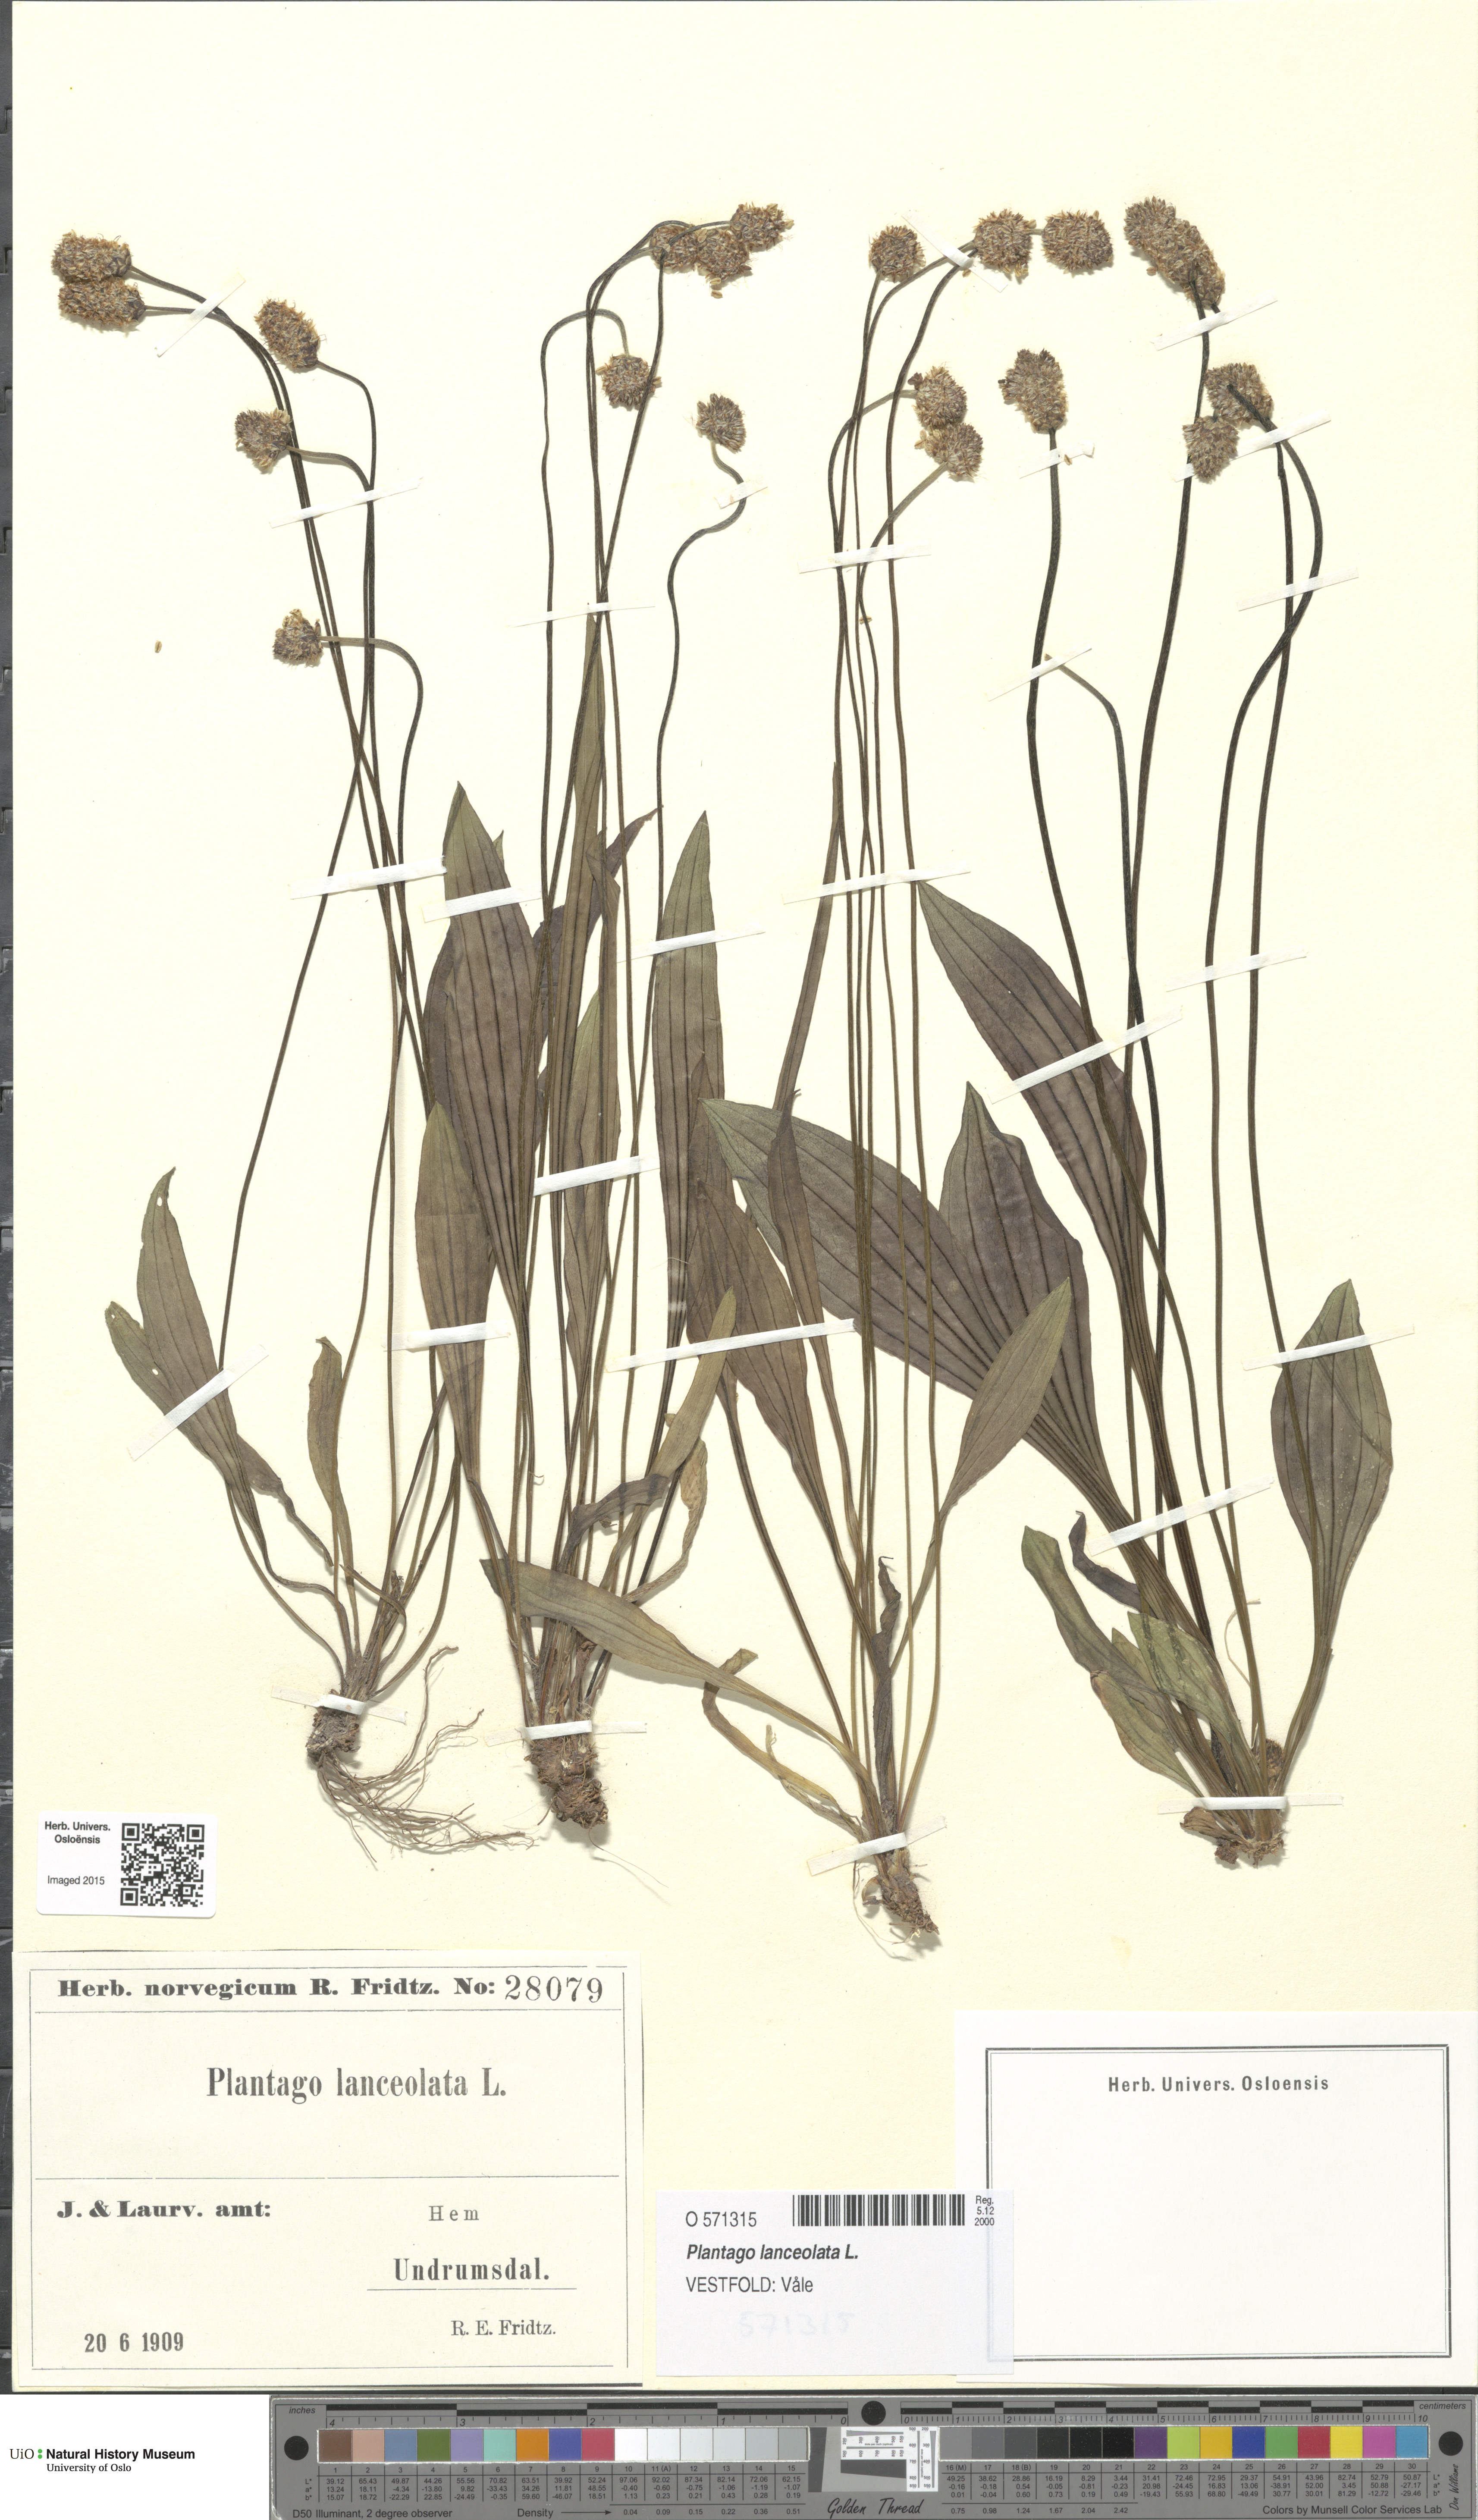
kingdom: Plantae
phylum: Tracheophyta
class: Magnoliopsida
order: Lamiales
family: Plantaginaceae
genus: Plantago
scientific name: Plantago lanceolata
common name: Ribwort plantain
